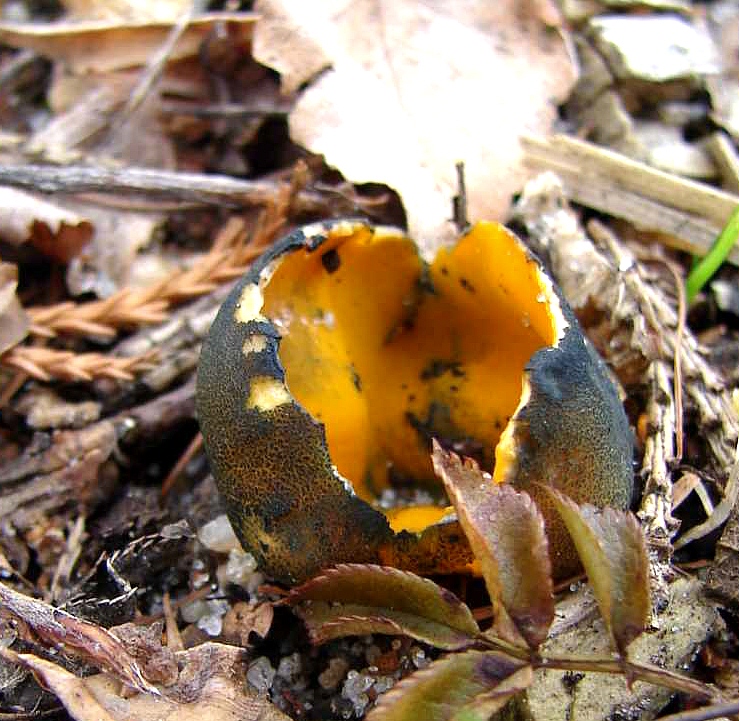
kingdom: Fungi
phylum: Ascomycota
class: Pezizomycetes
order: Pezizales
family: Caloscyphaceae
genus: Caloscypha
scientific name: Caloscypha fulgens
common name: jadebæger
